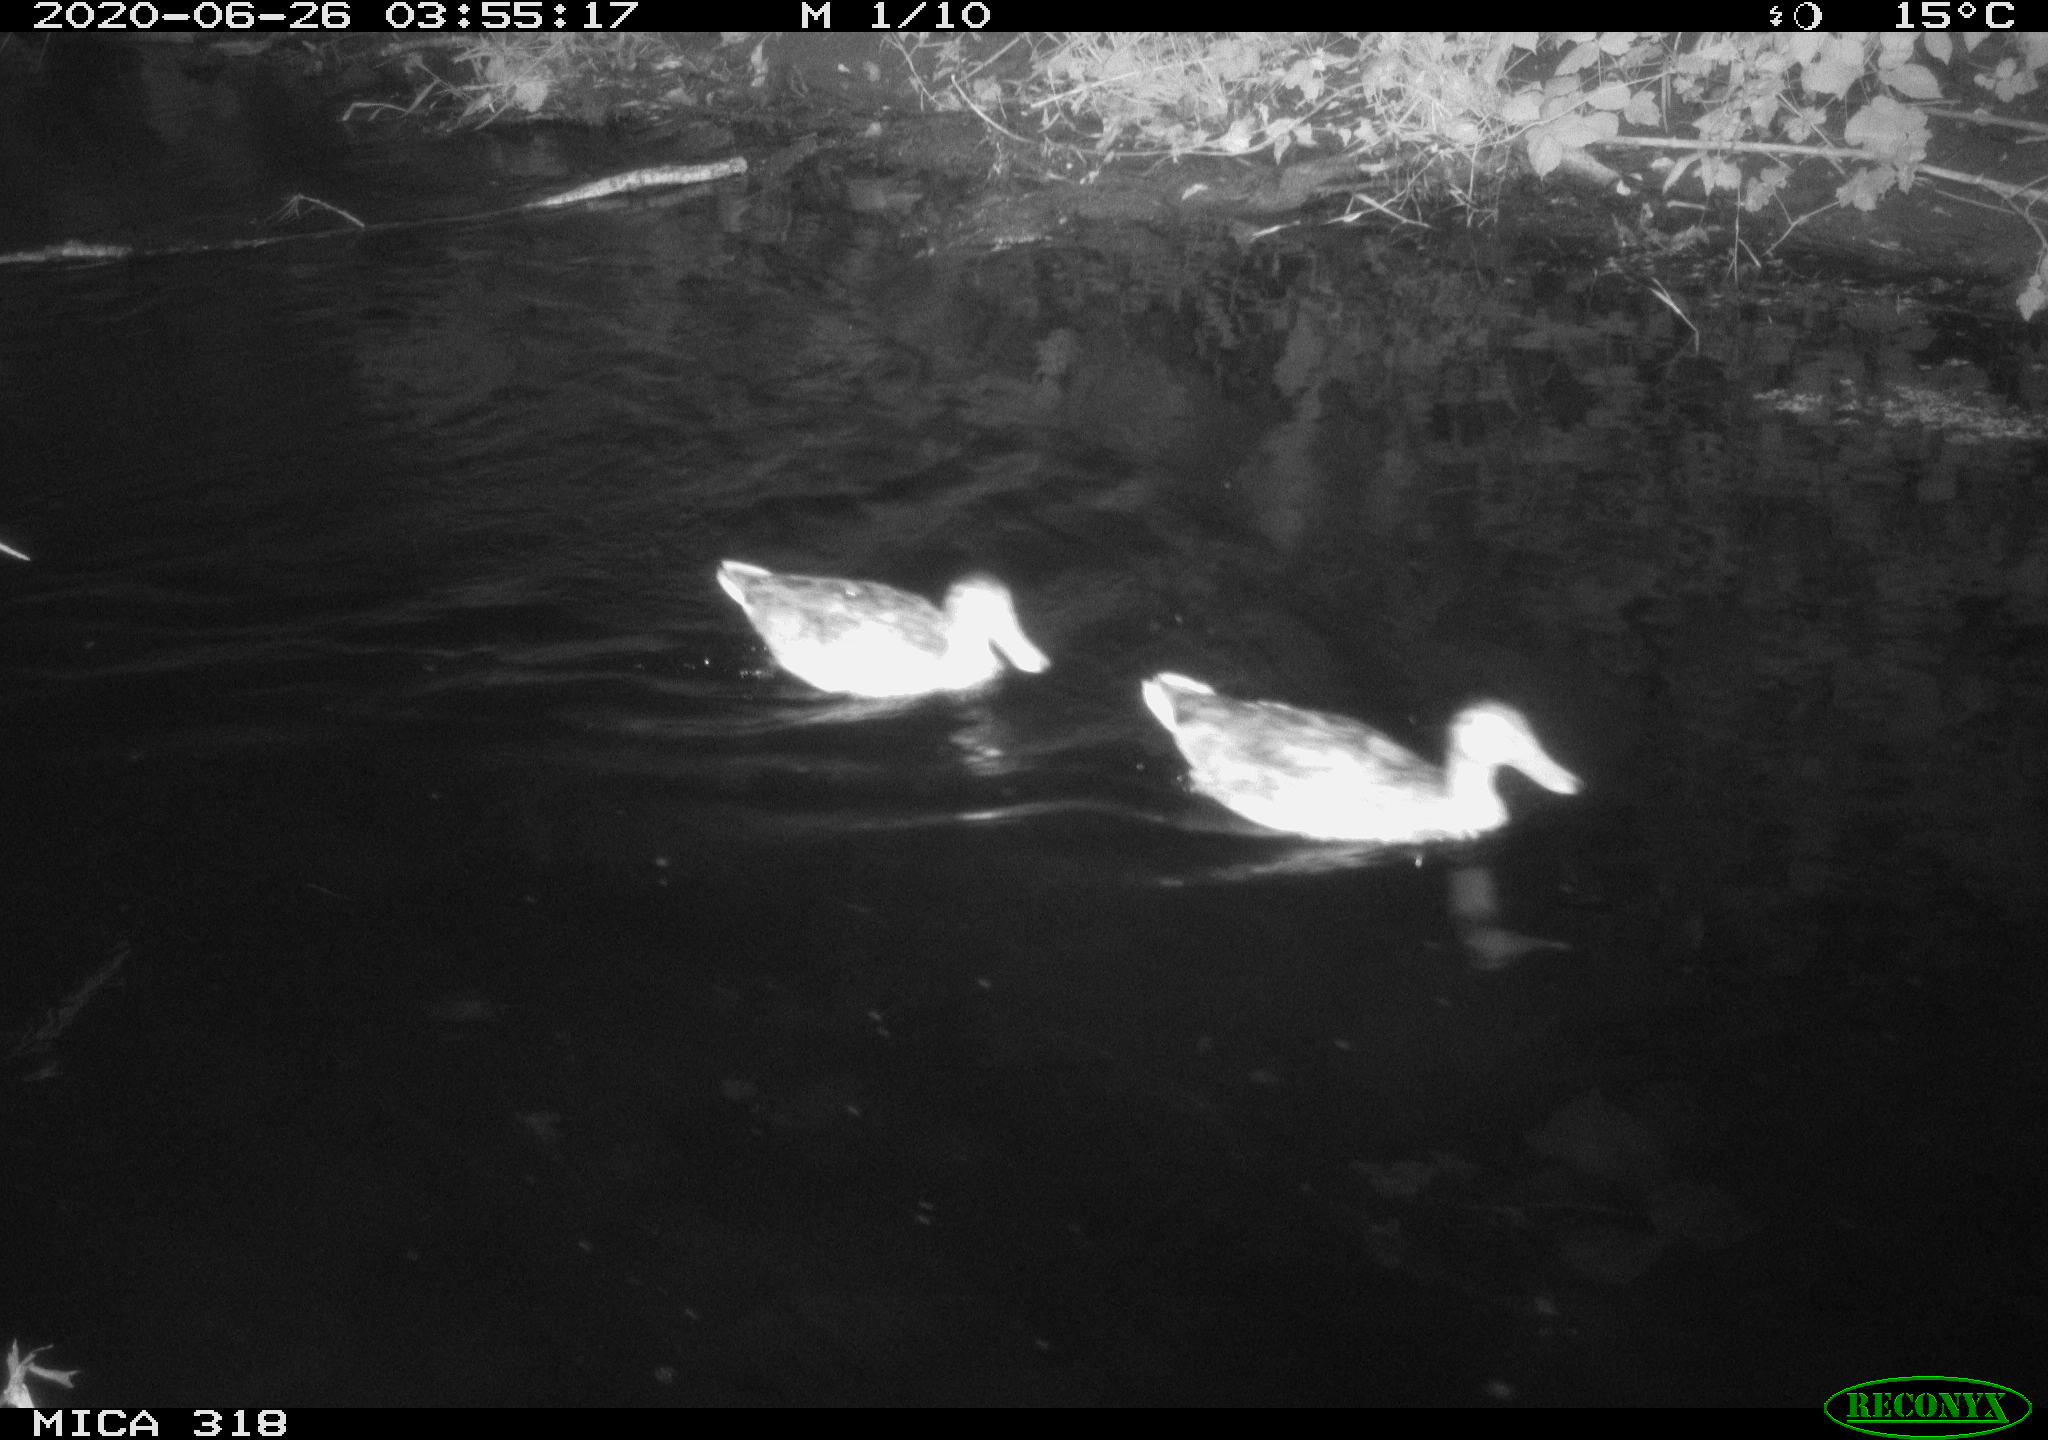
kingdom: Animalia
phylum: Chordata
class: Aves
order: Anseriformes
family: Anatidae
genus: Anas
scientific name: Anas platyrhynchos
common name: Mallard
